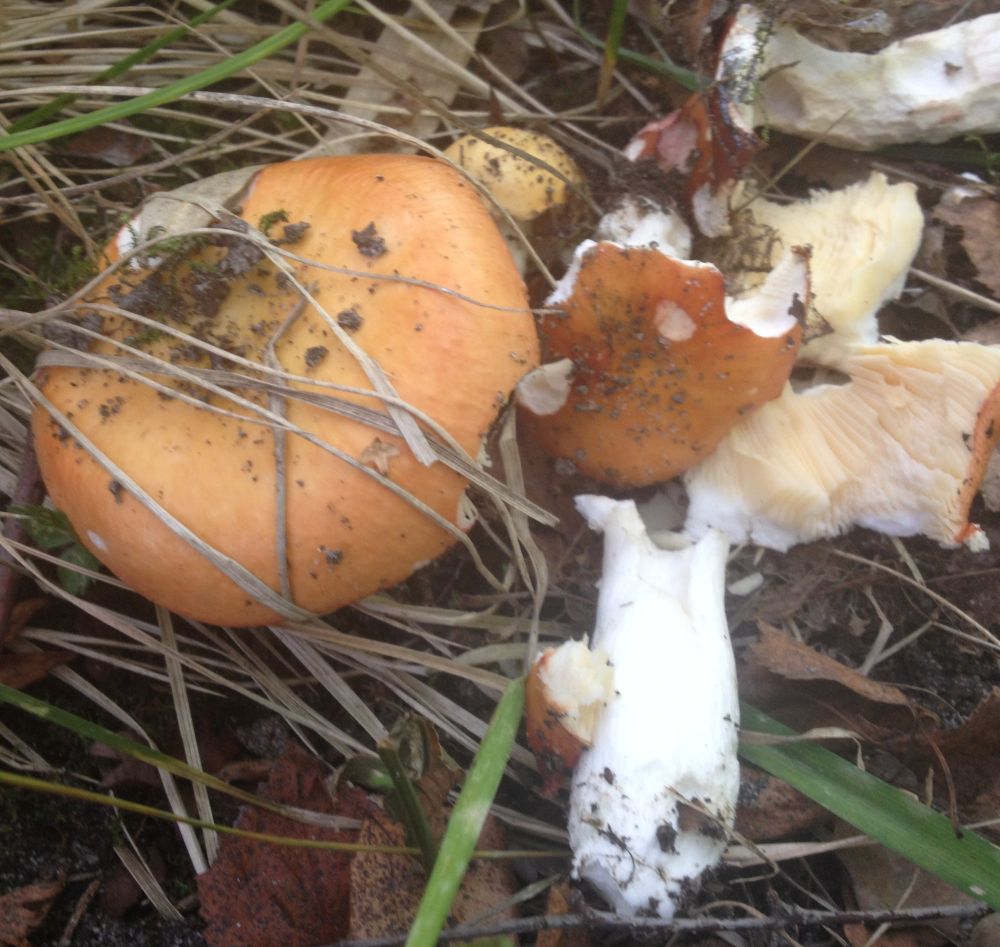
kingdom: Fungi
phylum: Basidiomycota
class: Agaricomycetes
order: Russulales
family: Russulaceae
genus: Russula
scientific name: Russula
